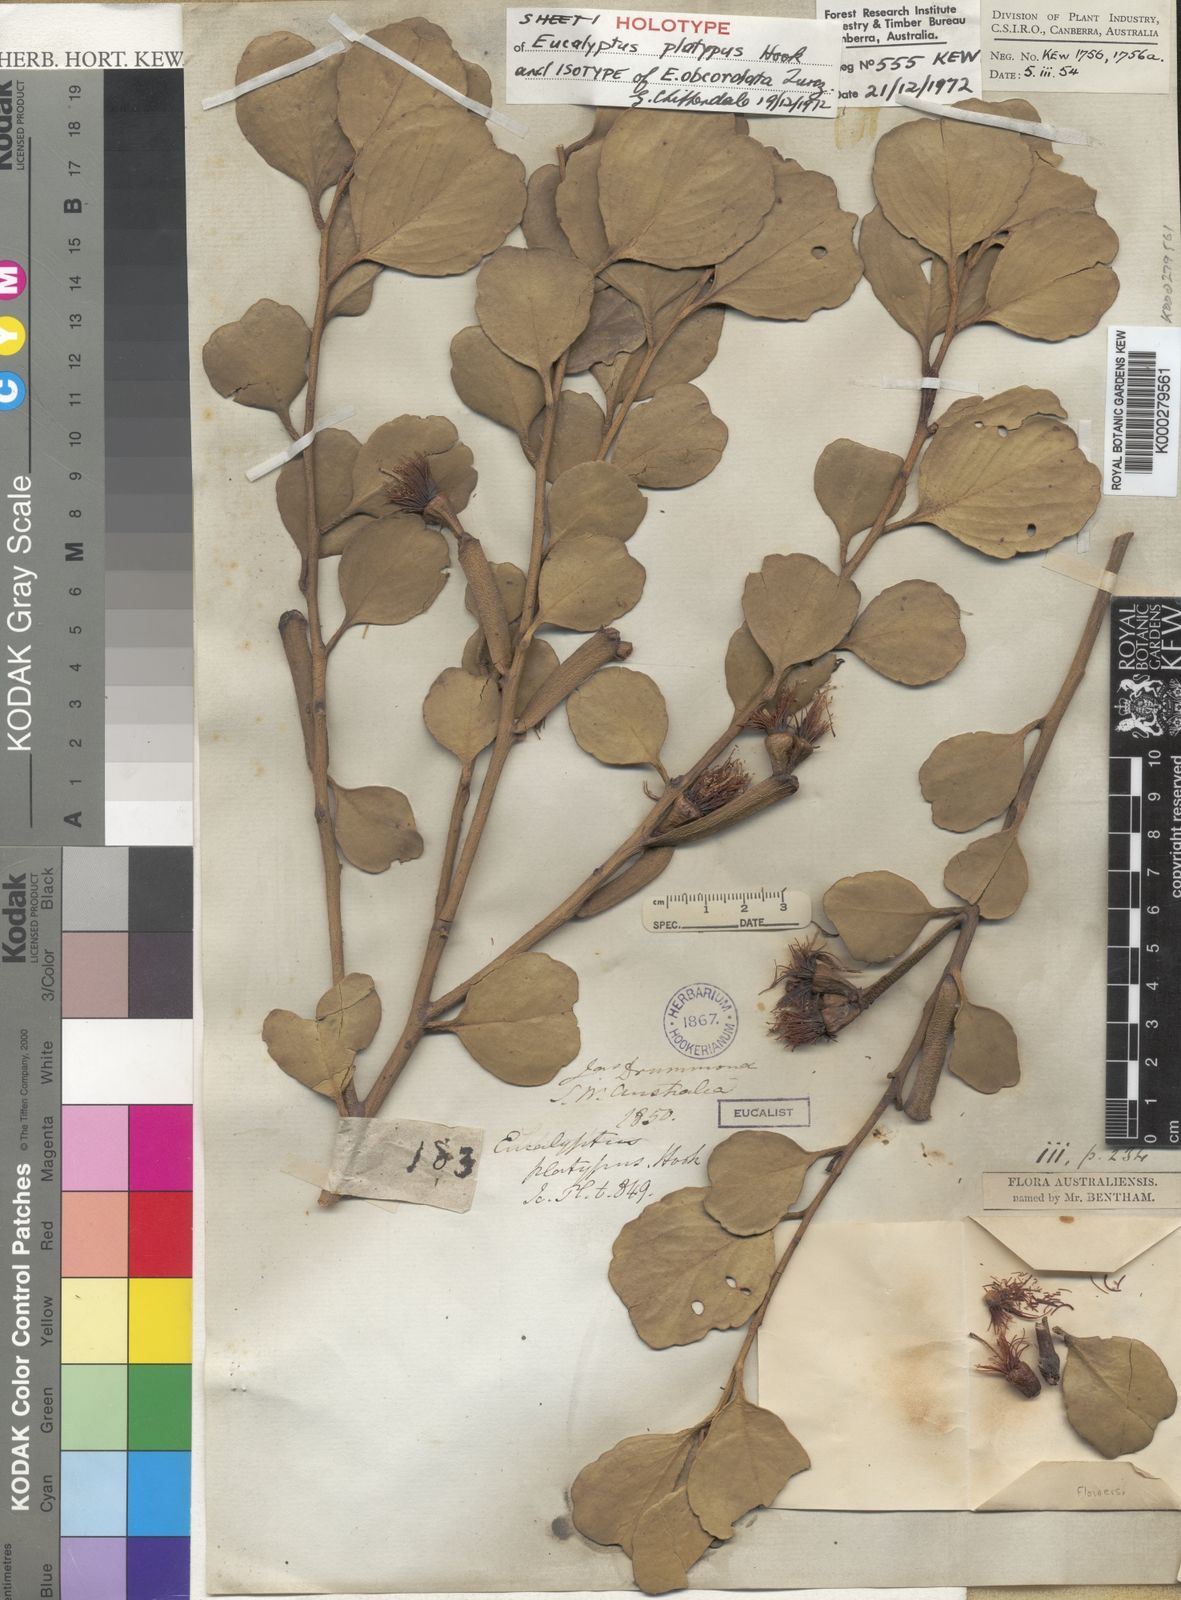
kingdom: Plantae
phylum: Tracheophyta
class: Magnoliopsida
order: Myrtales
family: Myrtaceae
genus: Eucalyptus
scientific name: Eucalyptus platypus
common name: Moort
